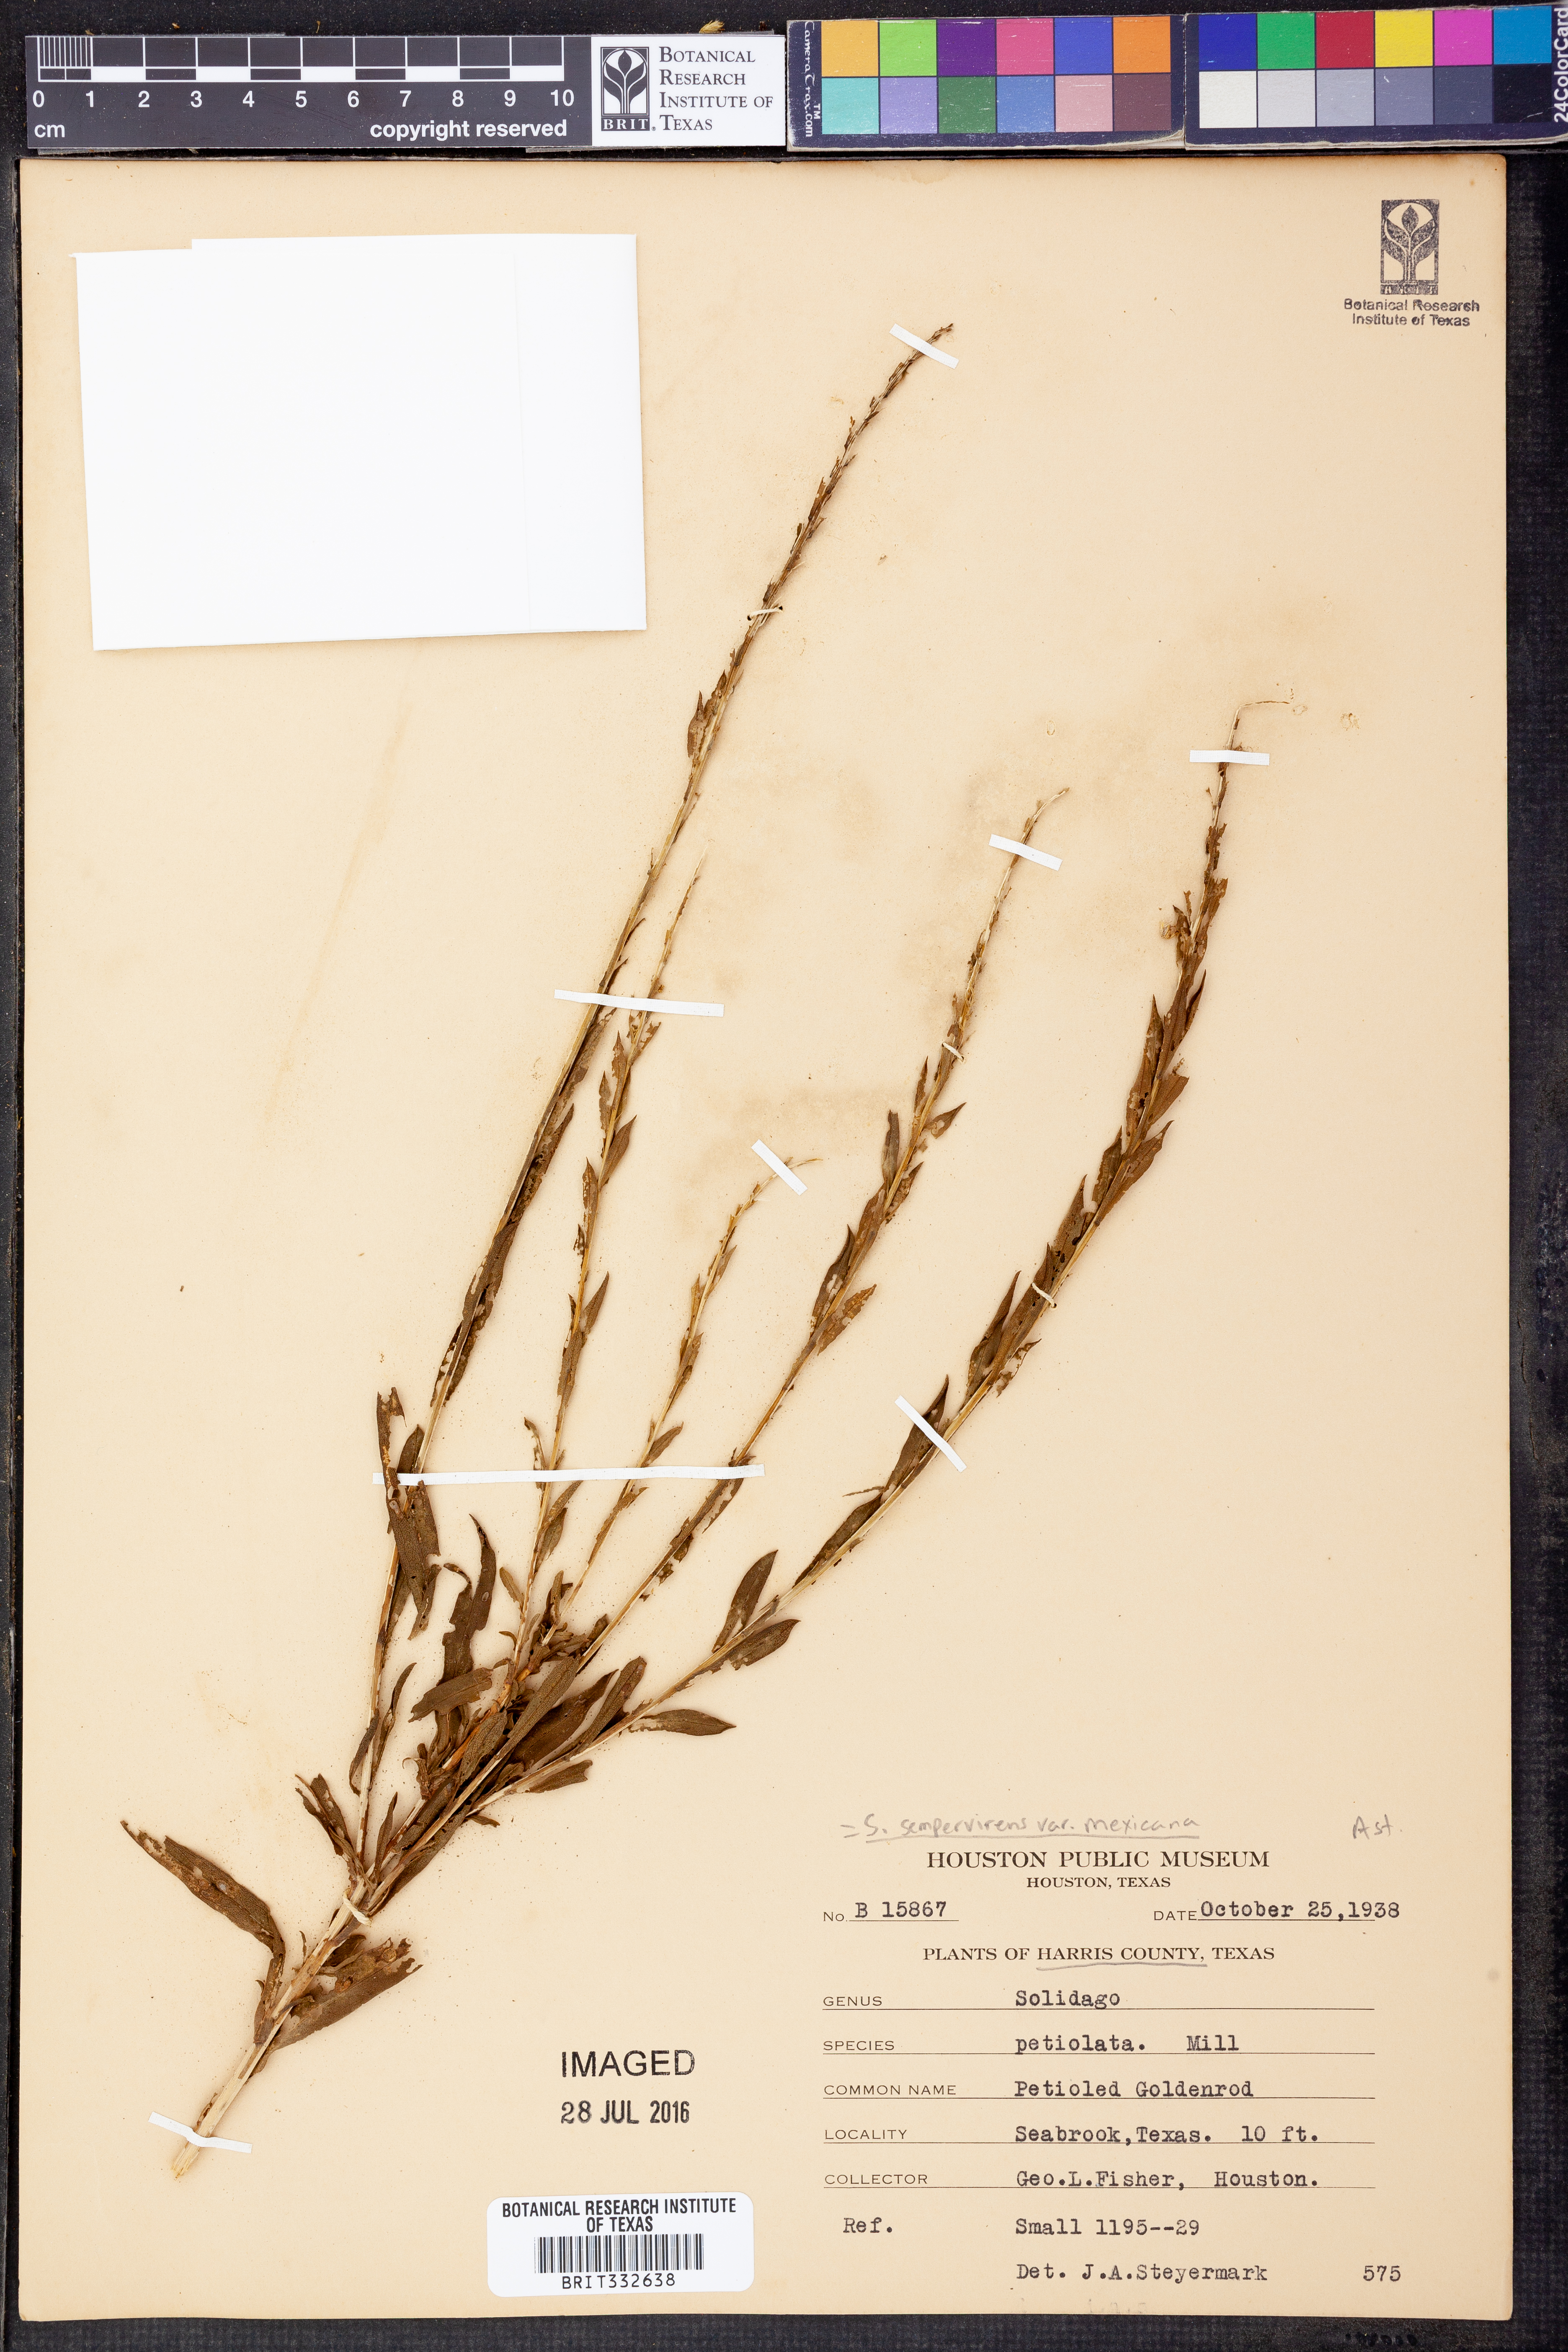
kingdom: Plantae
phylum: Tracheophyta
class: Magnoliopsida
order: Asterales
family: Asteraceae
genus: Solidago
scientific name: Solidago mexicana
